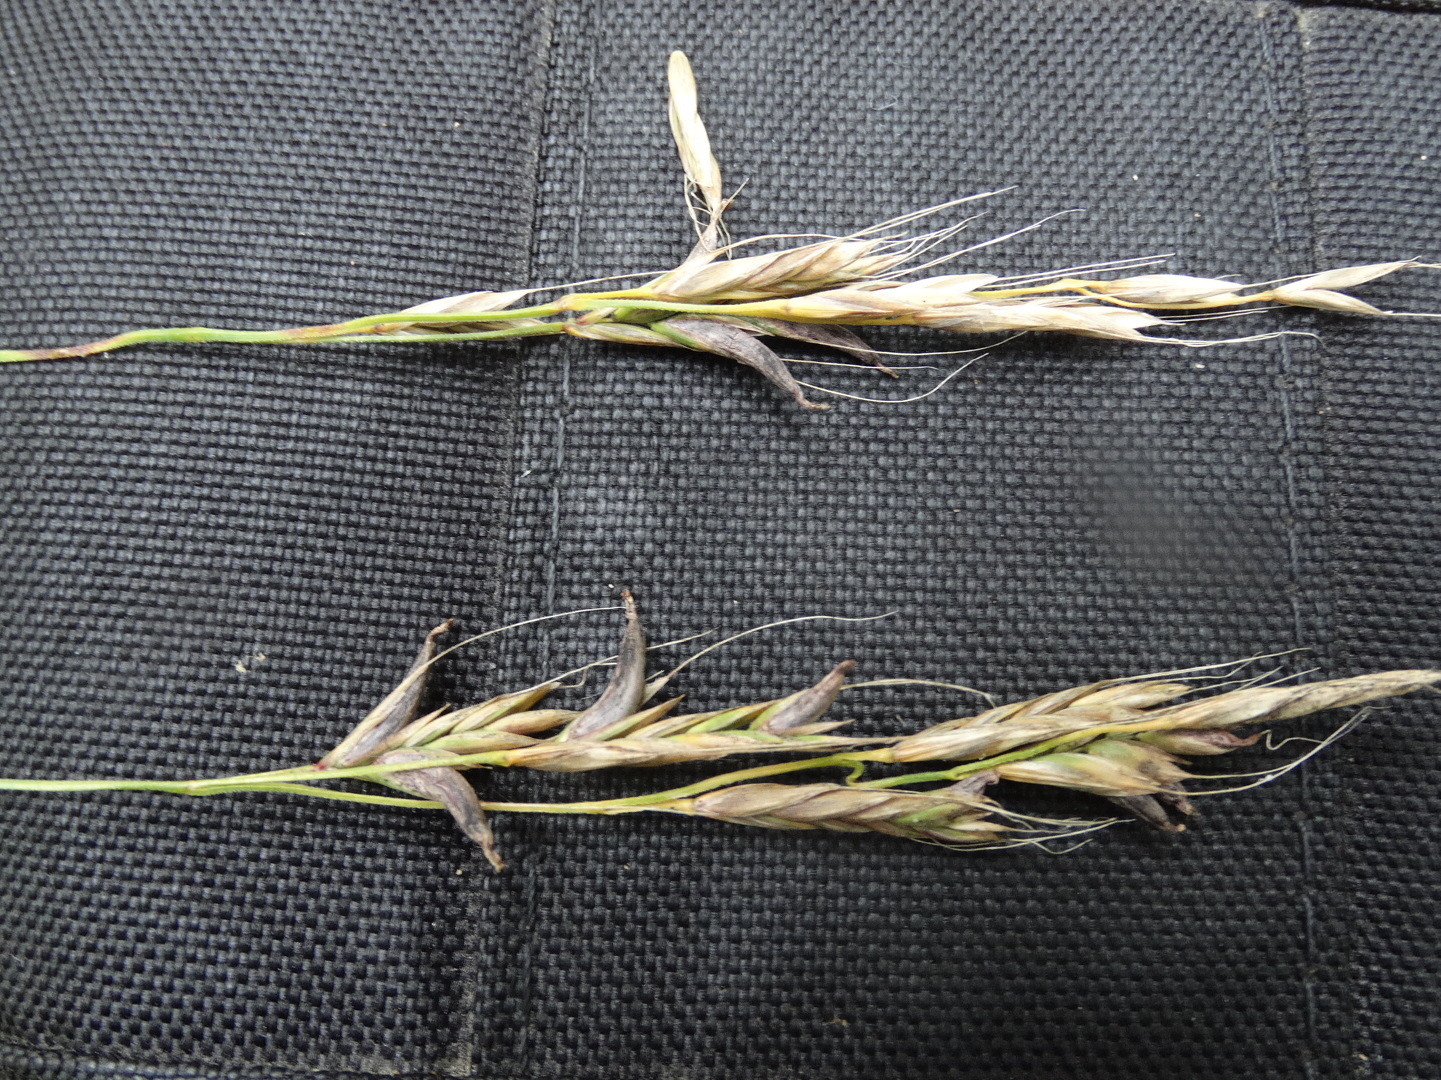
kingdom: Fungi
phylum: Ascomycota
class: Sordariomycetes
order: Hypocreales
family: Clavicipitaceae
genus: Claviceps
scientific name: Claviceps purpurea
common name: almindelig meldrøjer
